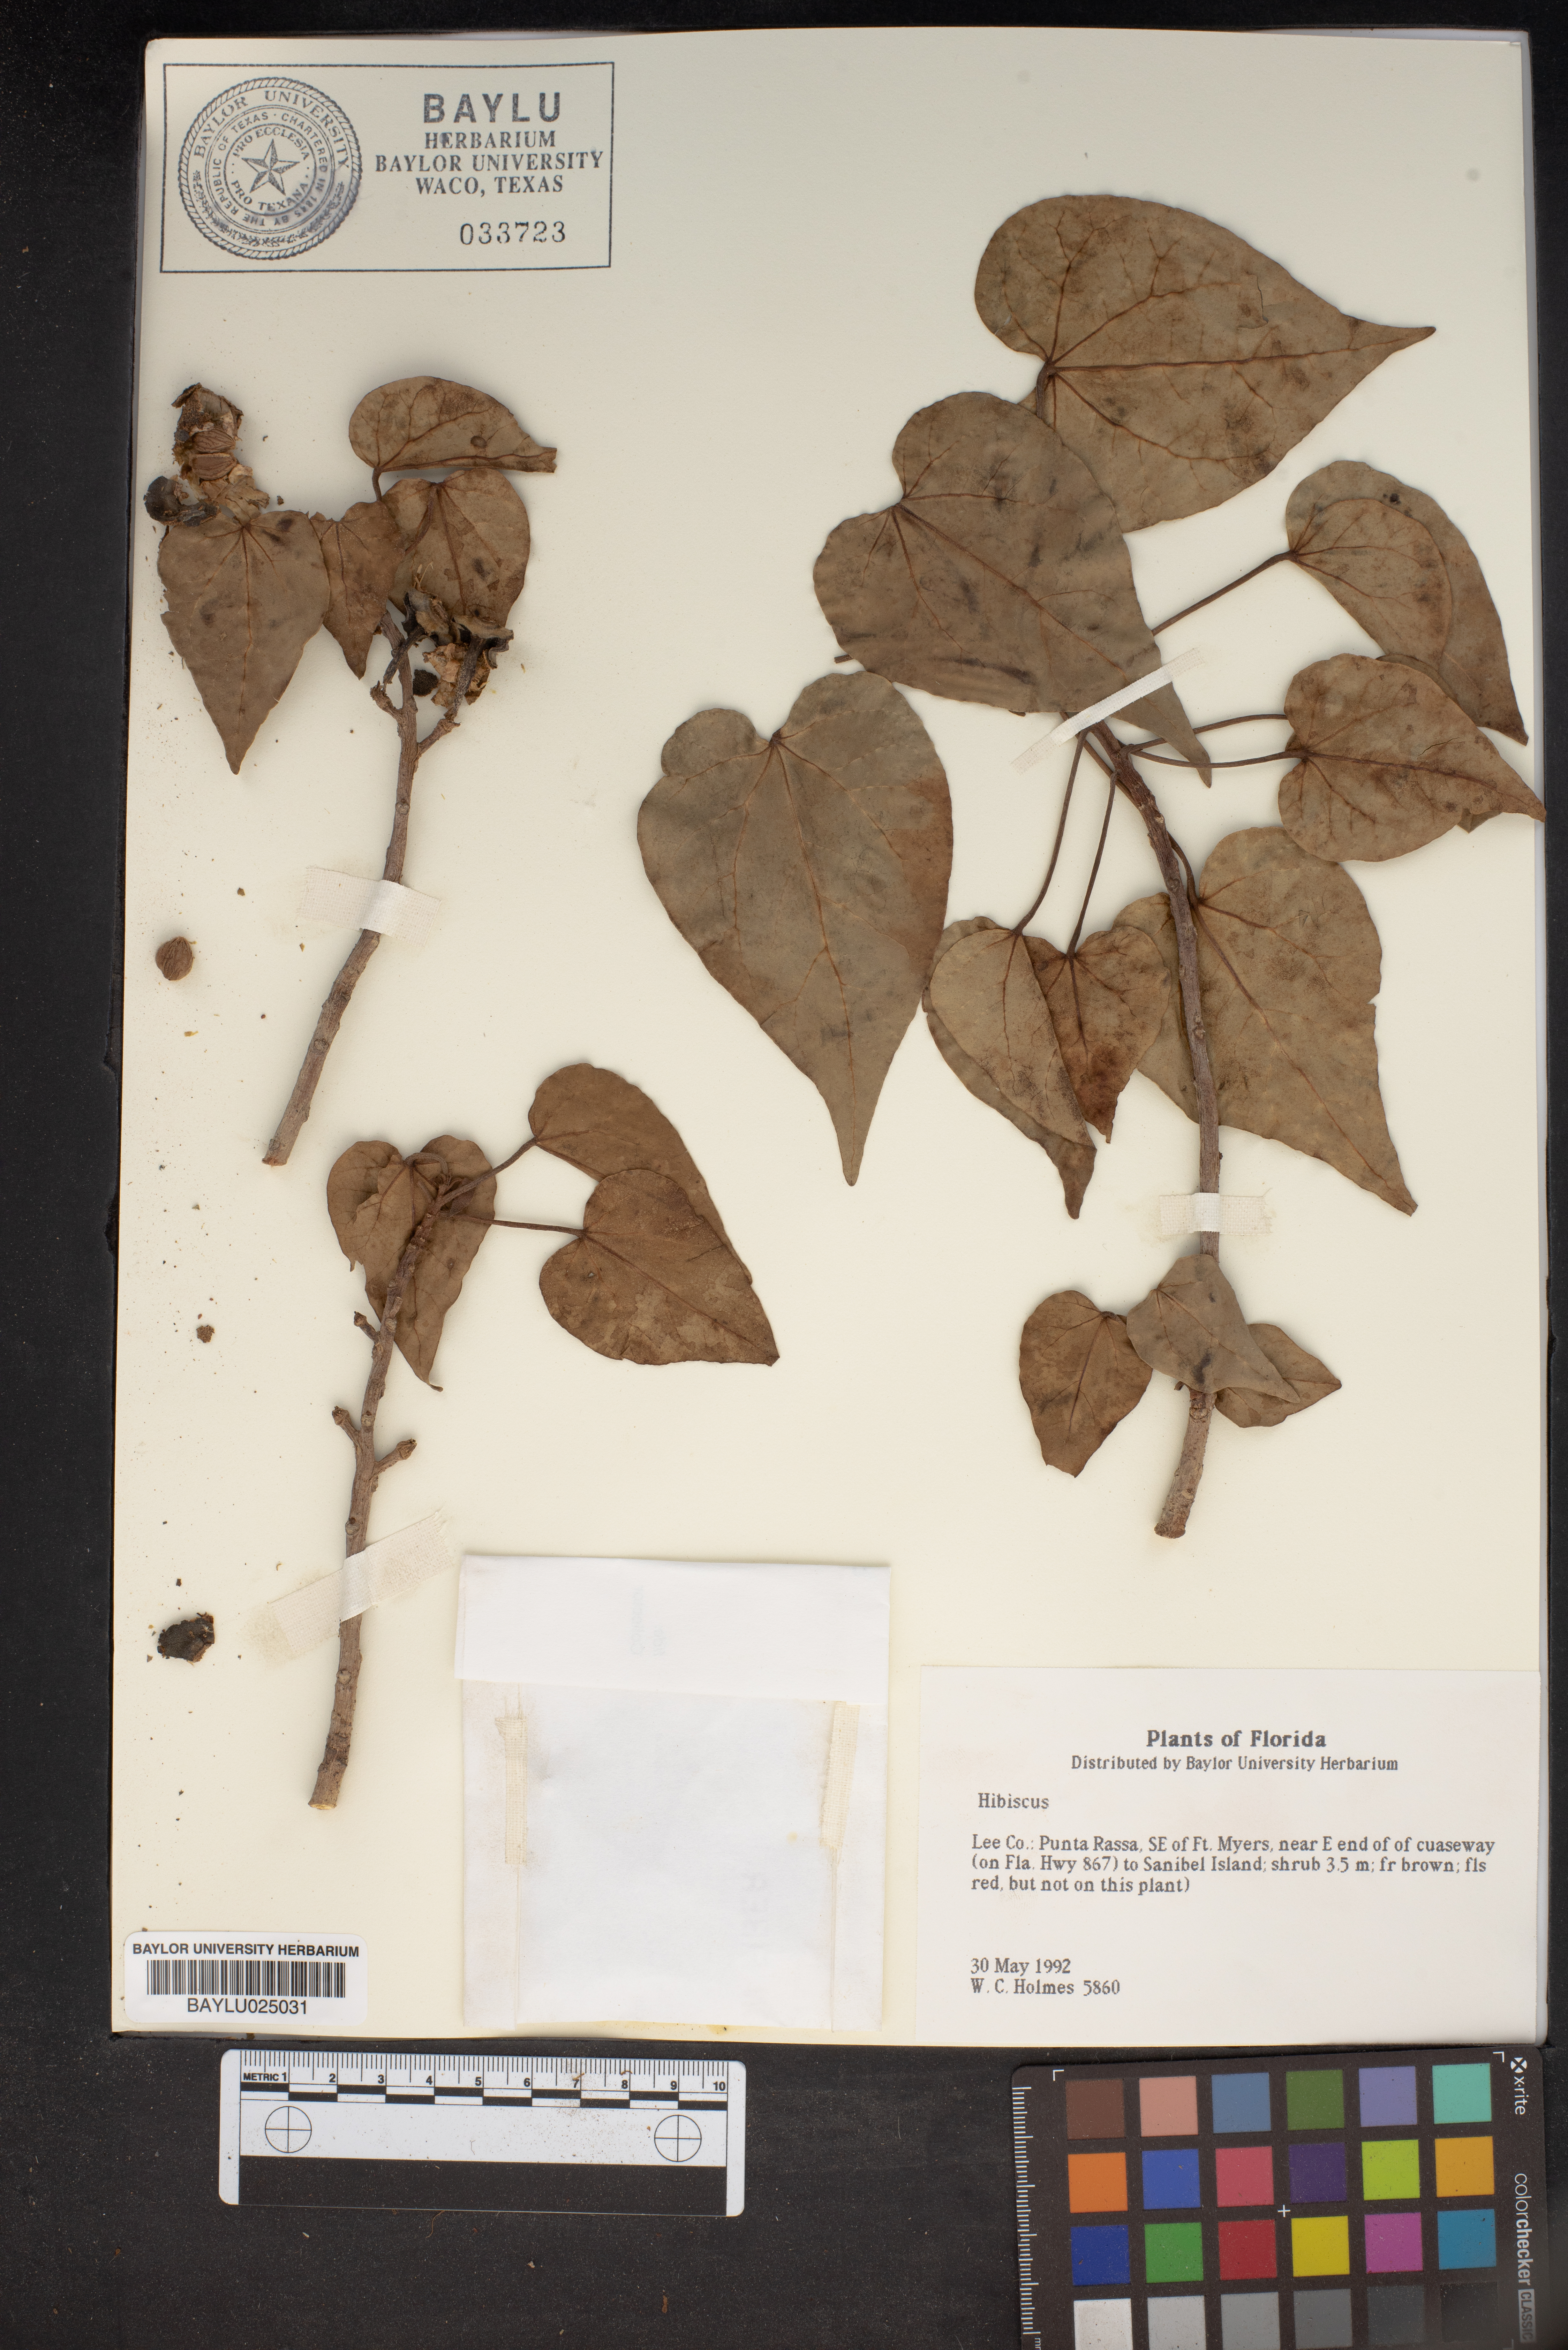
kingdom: Plantae
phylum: Tracheophyta
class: Magnoliopsida
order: Malvales
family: Malvaceae
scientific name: Malvaceae
